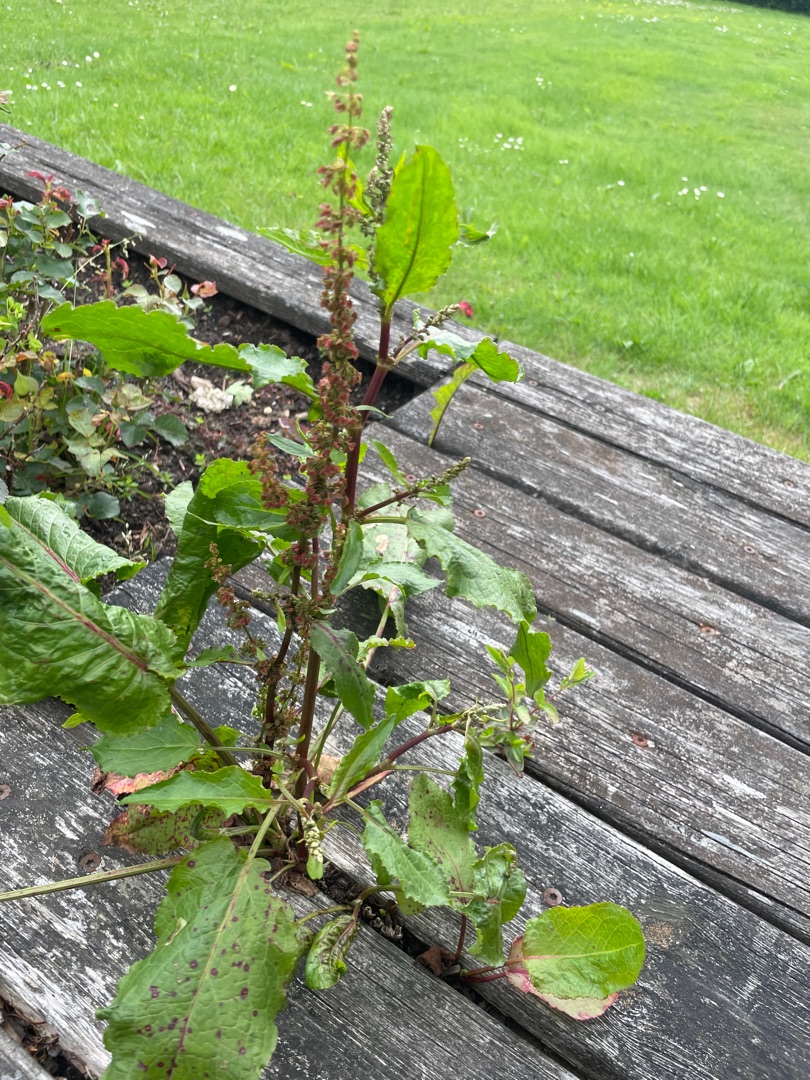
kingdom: Plantae
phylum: Tracheophyta
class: Magnoliopsida
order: Caryophyllales
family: Polygonaceae
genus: Rumex
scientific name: Rumex obtusifolius
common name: Butbladet skræppe
